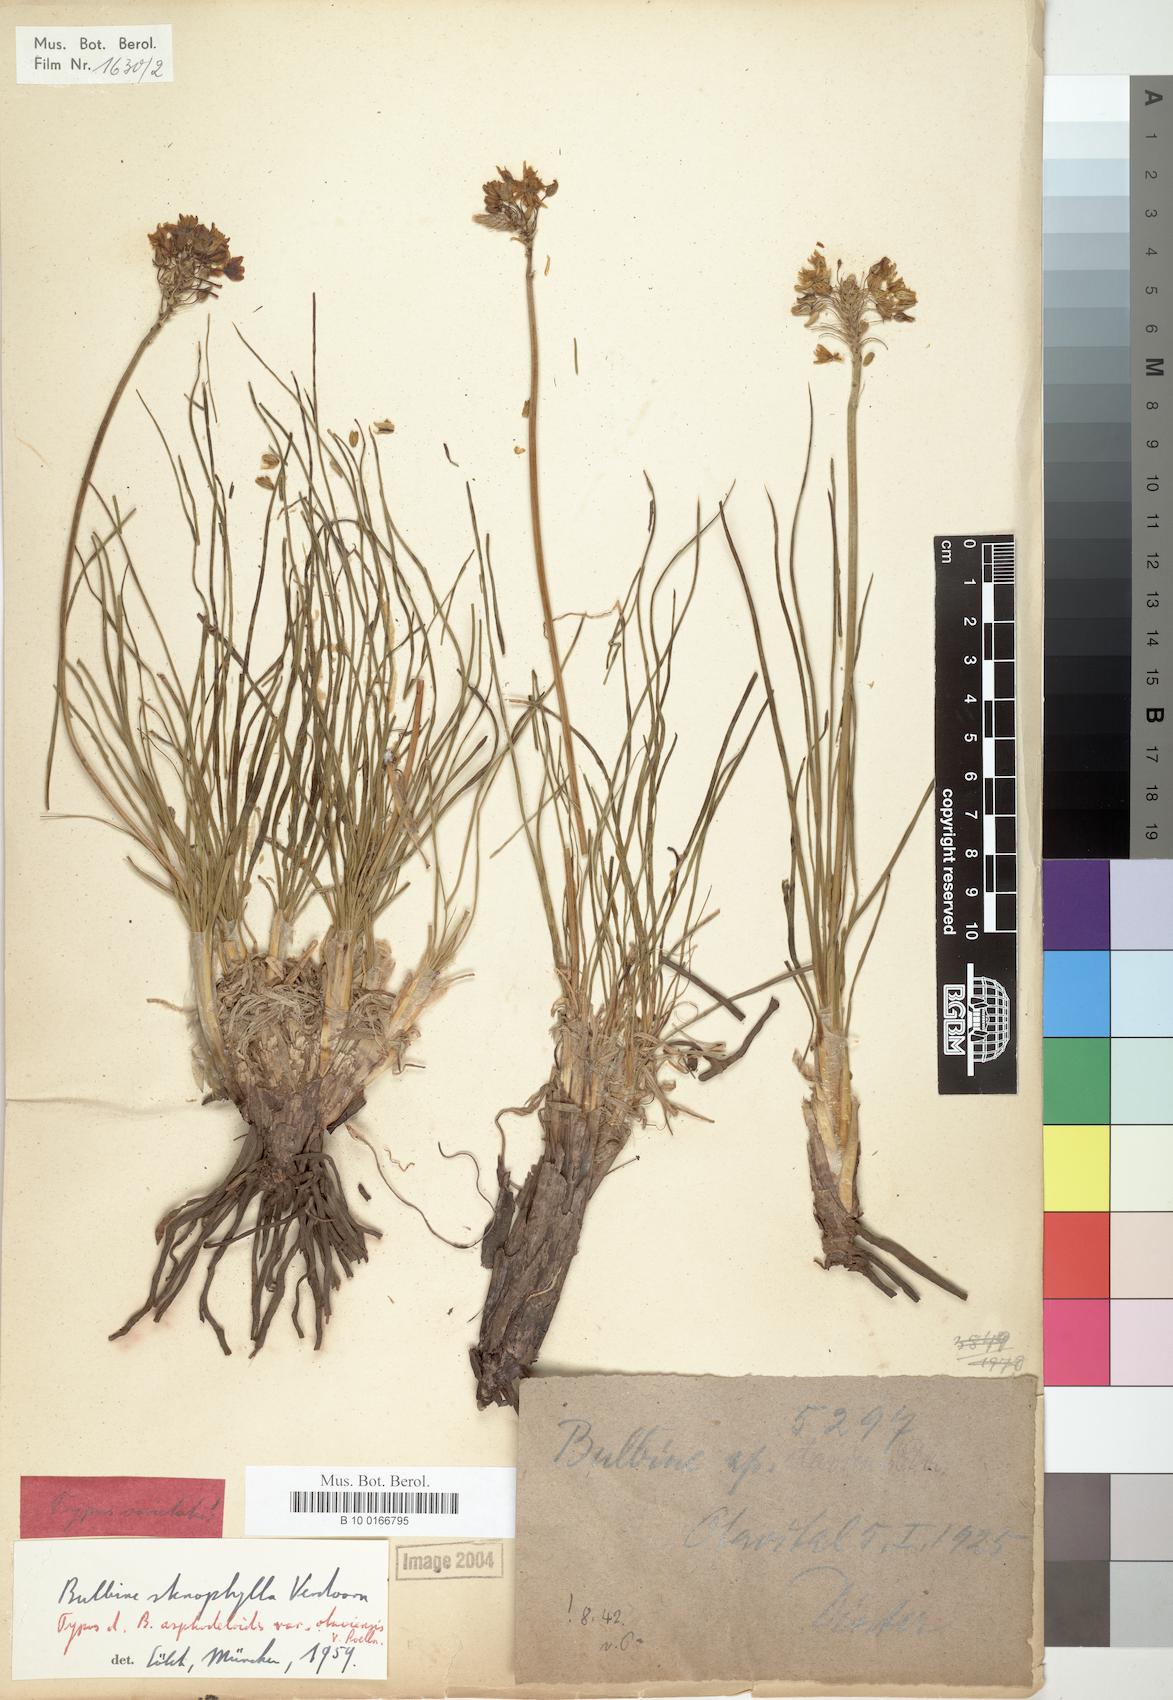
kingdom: Plantae
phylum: Tracheophyta
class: Liliopsida
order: Asparagales
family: Asphodelaceae
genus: Bulbine
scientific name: Bulbine capitata
